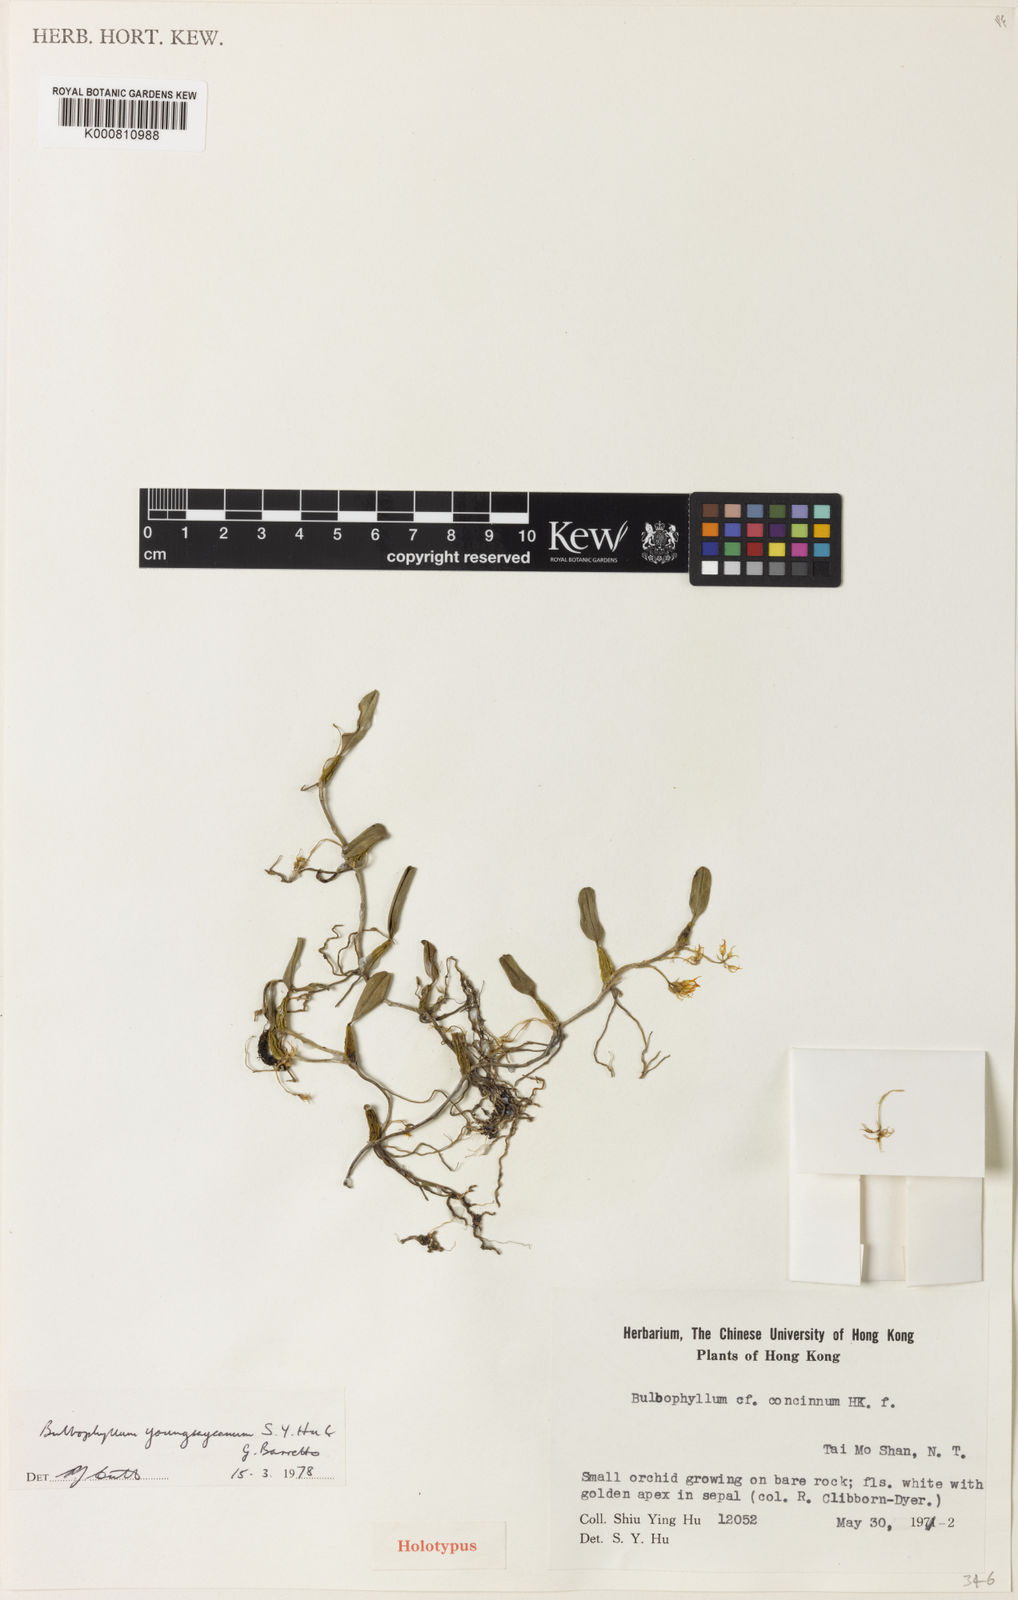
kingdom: Plantae
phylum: Tracheophyta
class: Liliopsida
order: Asparagales
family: Orchidaceae
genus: Bulbophyllum
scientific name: Bulbophyllum stenobulbon
